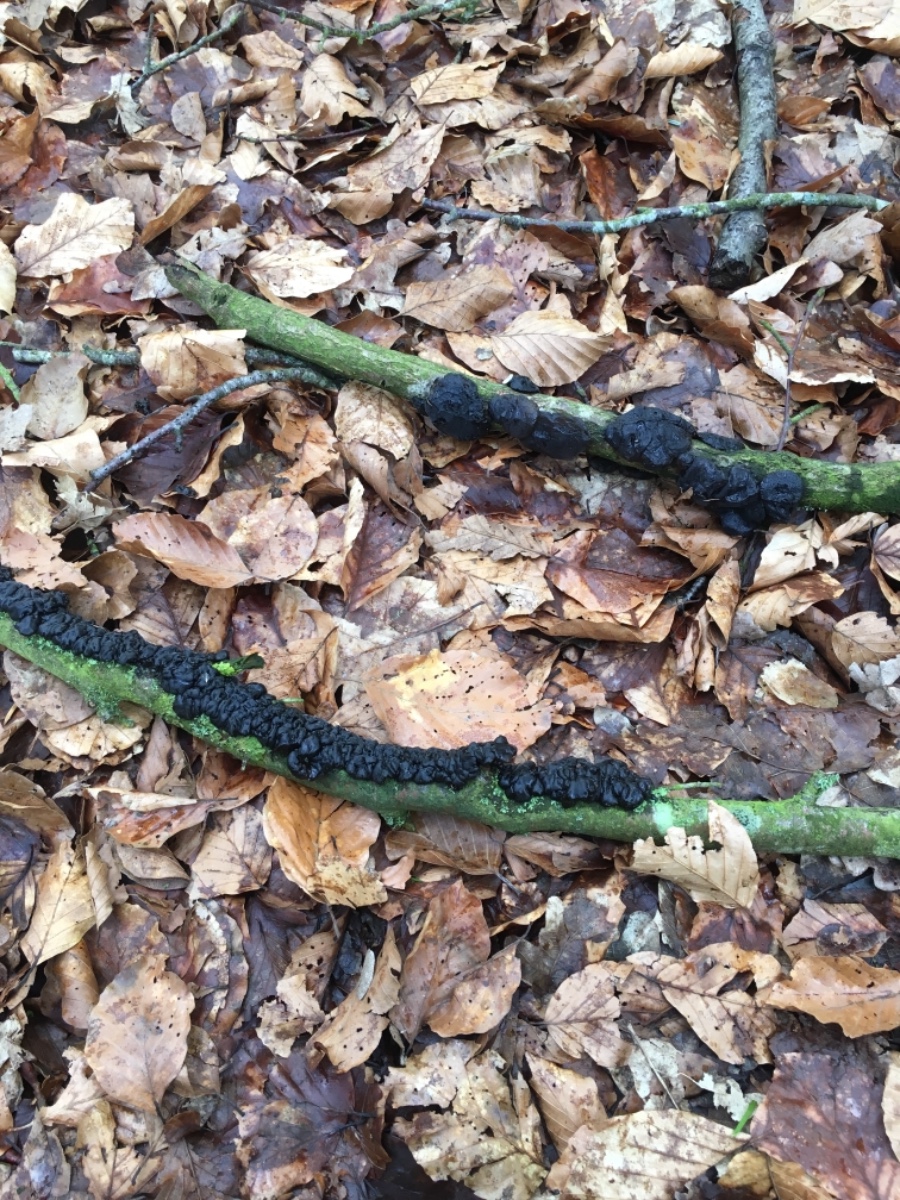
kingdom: Fungi
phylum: Basidiomycota
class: Agaricomycetes
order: Auriculariales
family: Auriculariaceae
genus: Exidia
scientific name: Exidia nigricans
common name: almindelig bævretop
